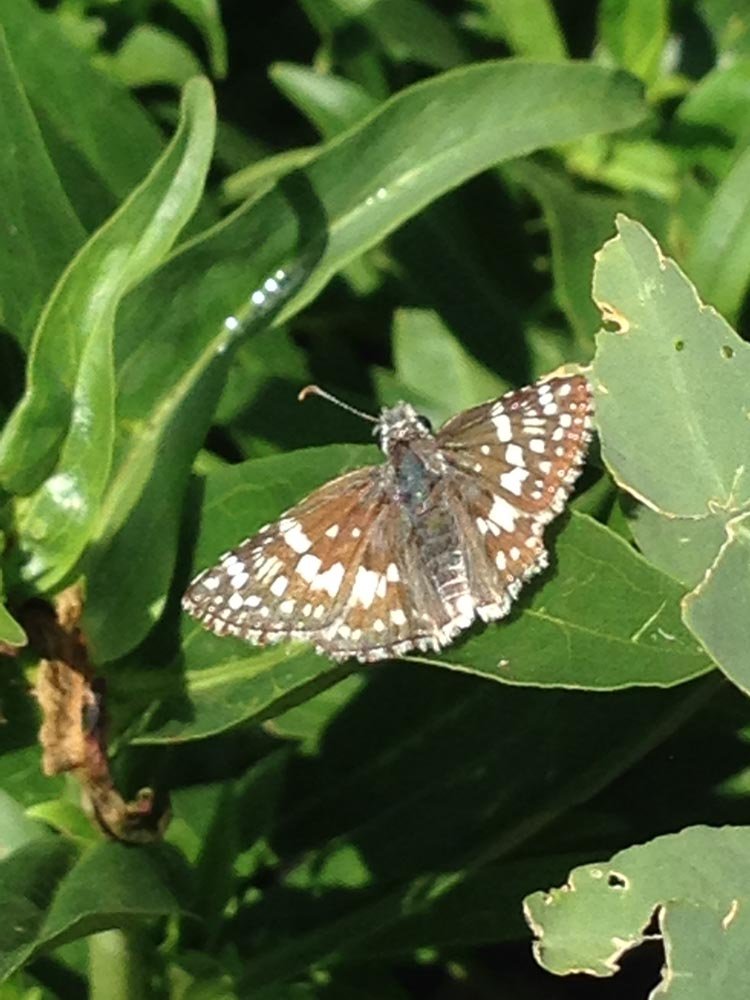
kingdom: Animalia
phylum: Arthropoda
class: Insecta
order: Lepidoptera
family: Hesperiidae
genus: Pyrgus
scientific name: Pyrgus communis
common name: Common Checkered-Skipper
